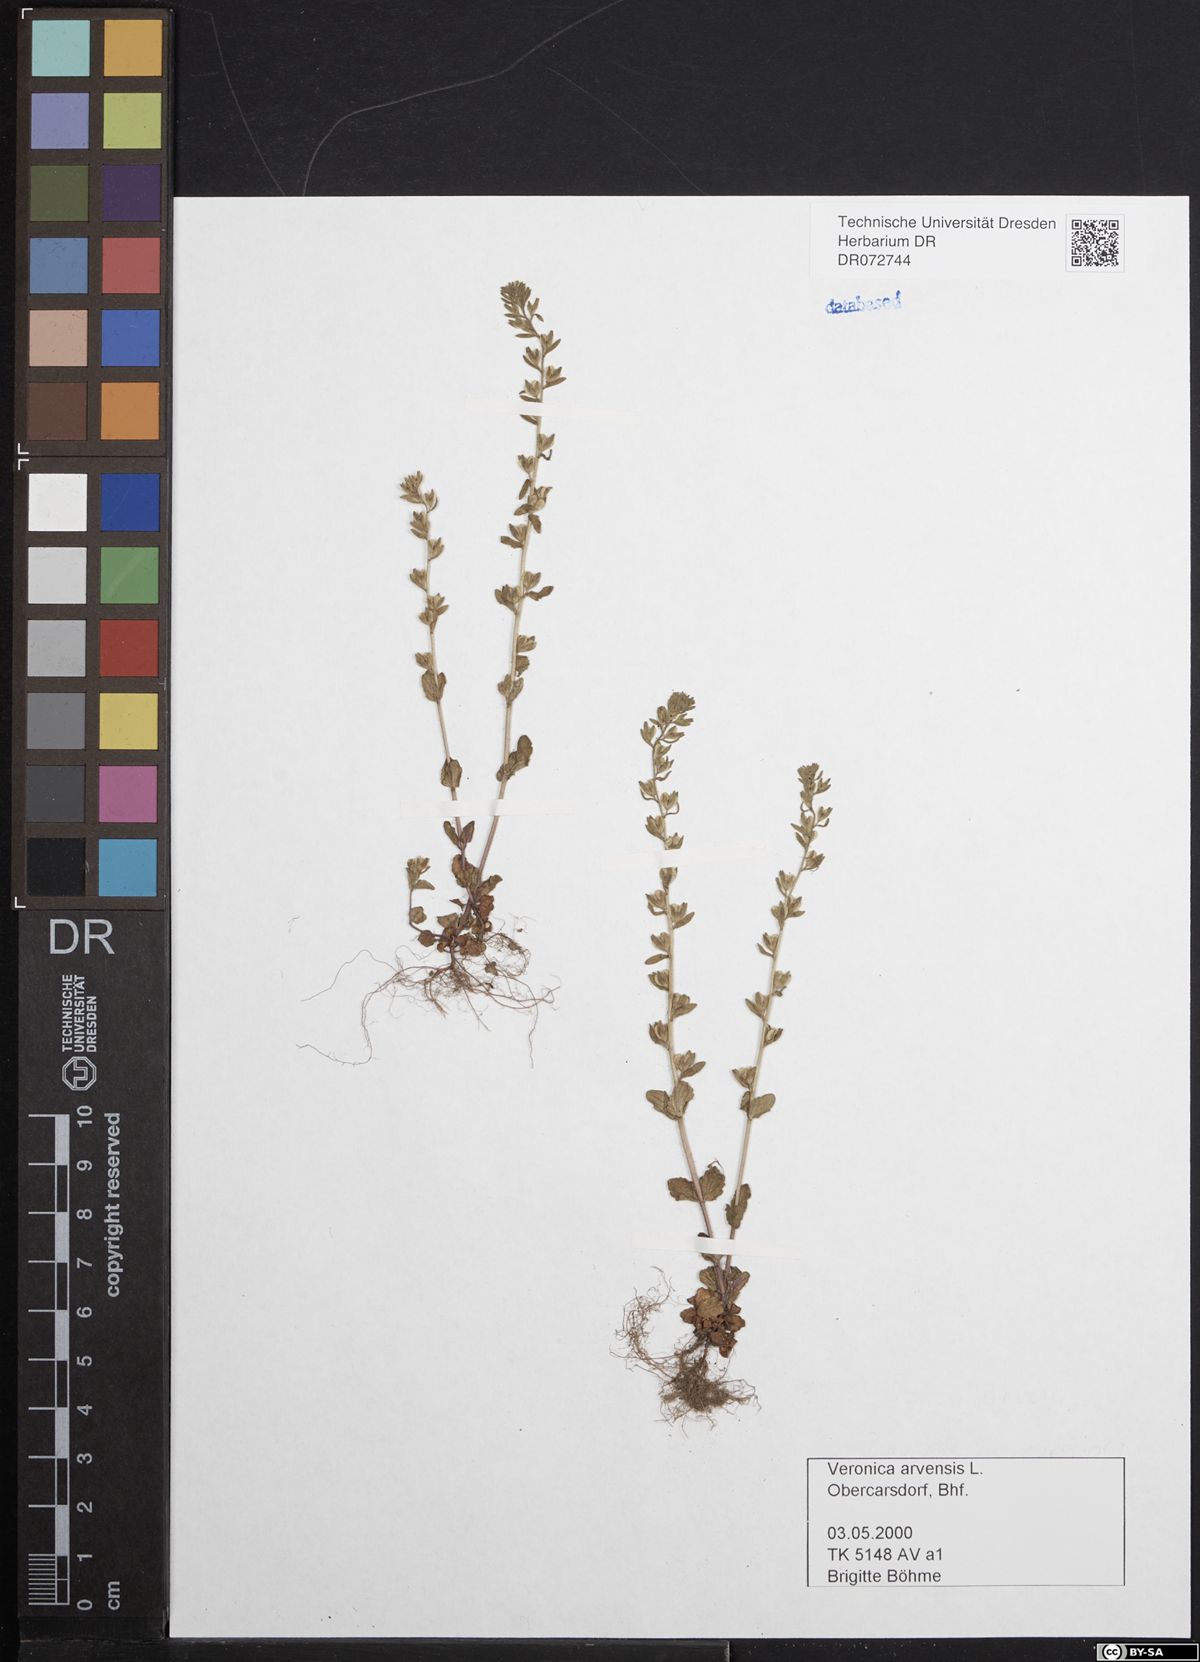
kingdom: Plantae
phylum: Tracheophyta
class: Magnoliopsida
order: Lamiales
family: Plantaginaceae
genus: Veronica
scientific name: Veronica arvensis
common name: Corn speedwell
